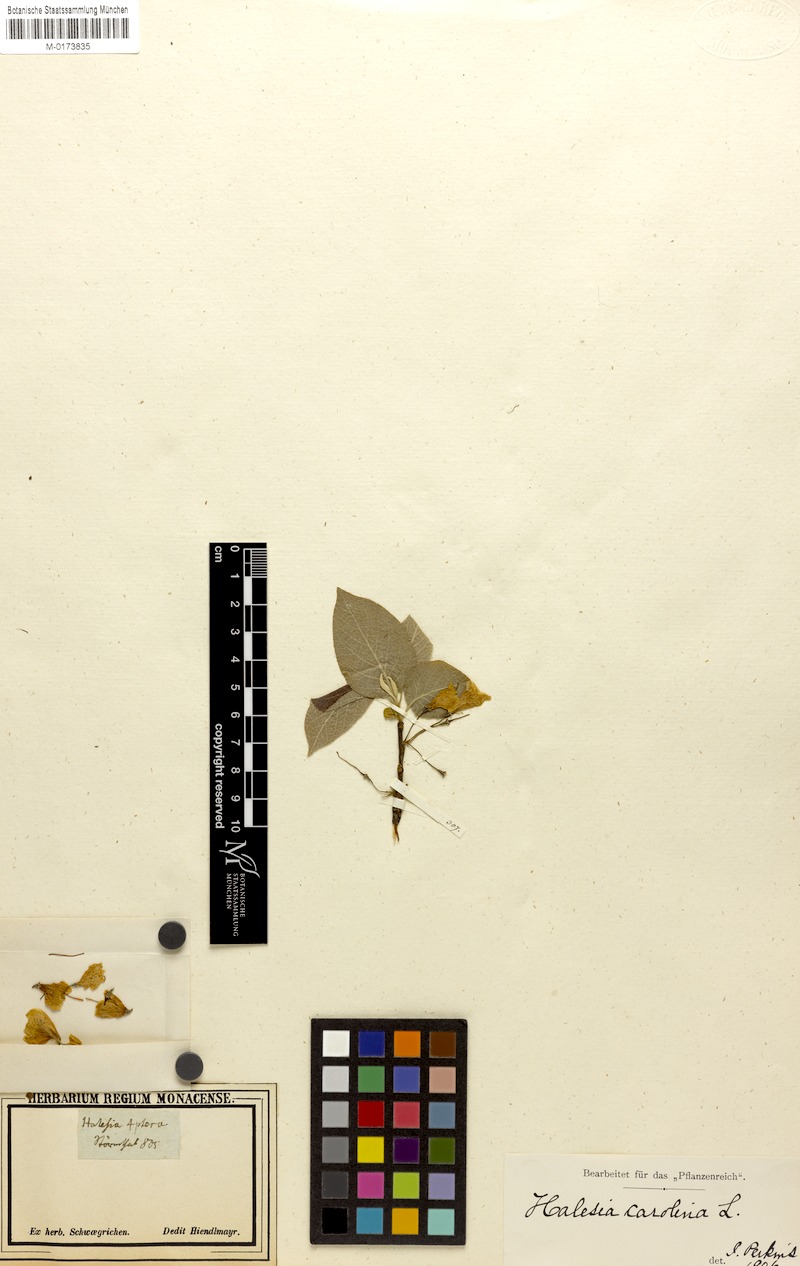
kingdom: Plantae
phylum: Tracheophyta
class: Magnoliopsida
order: Ericales
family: Styracaceae
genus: Halesia
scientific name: Halesia carolina
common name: Carolina silverbell
